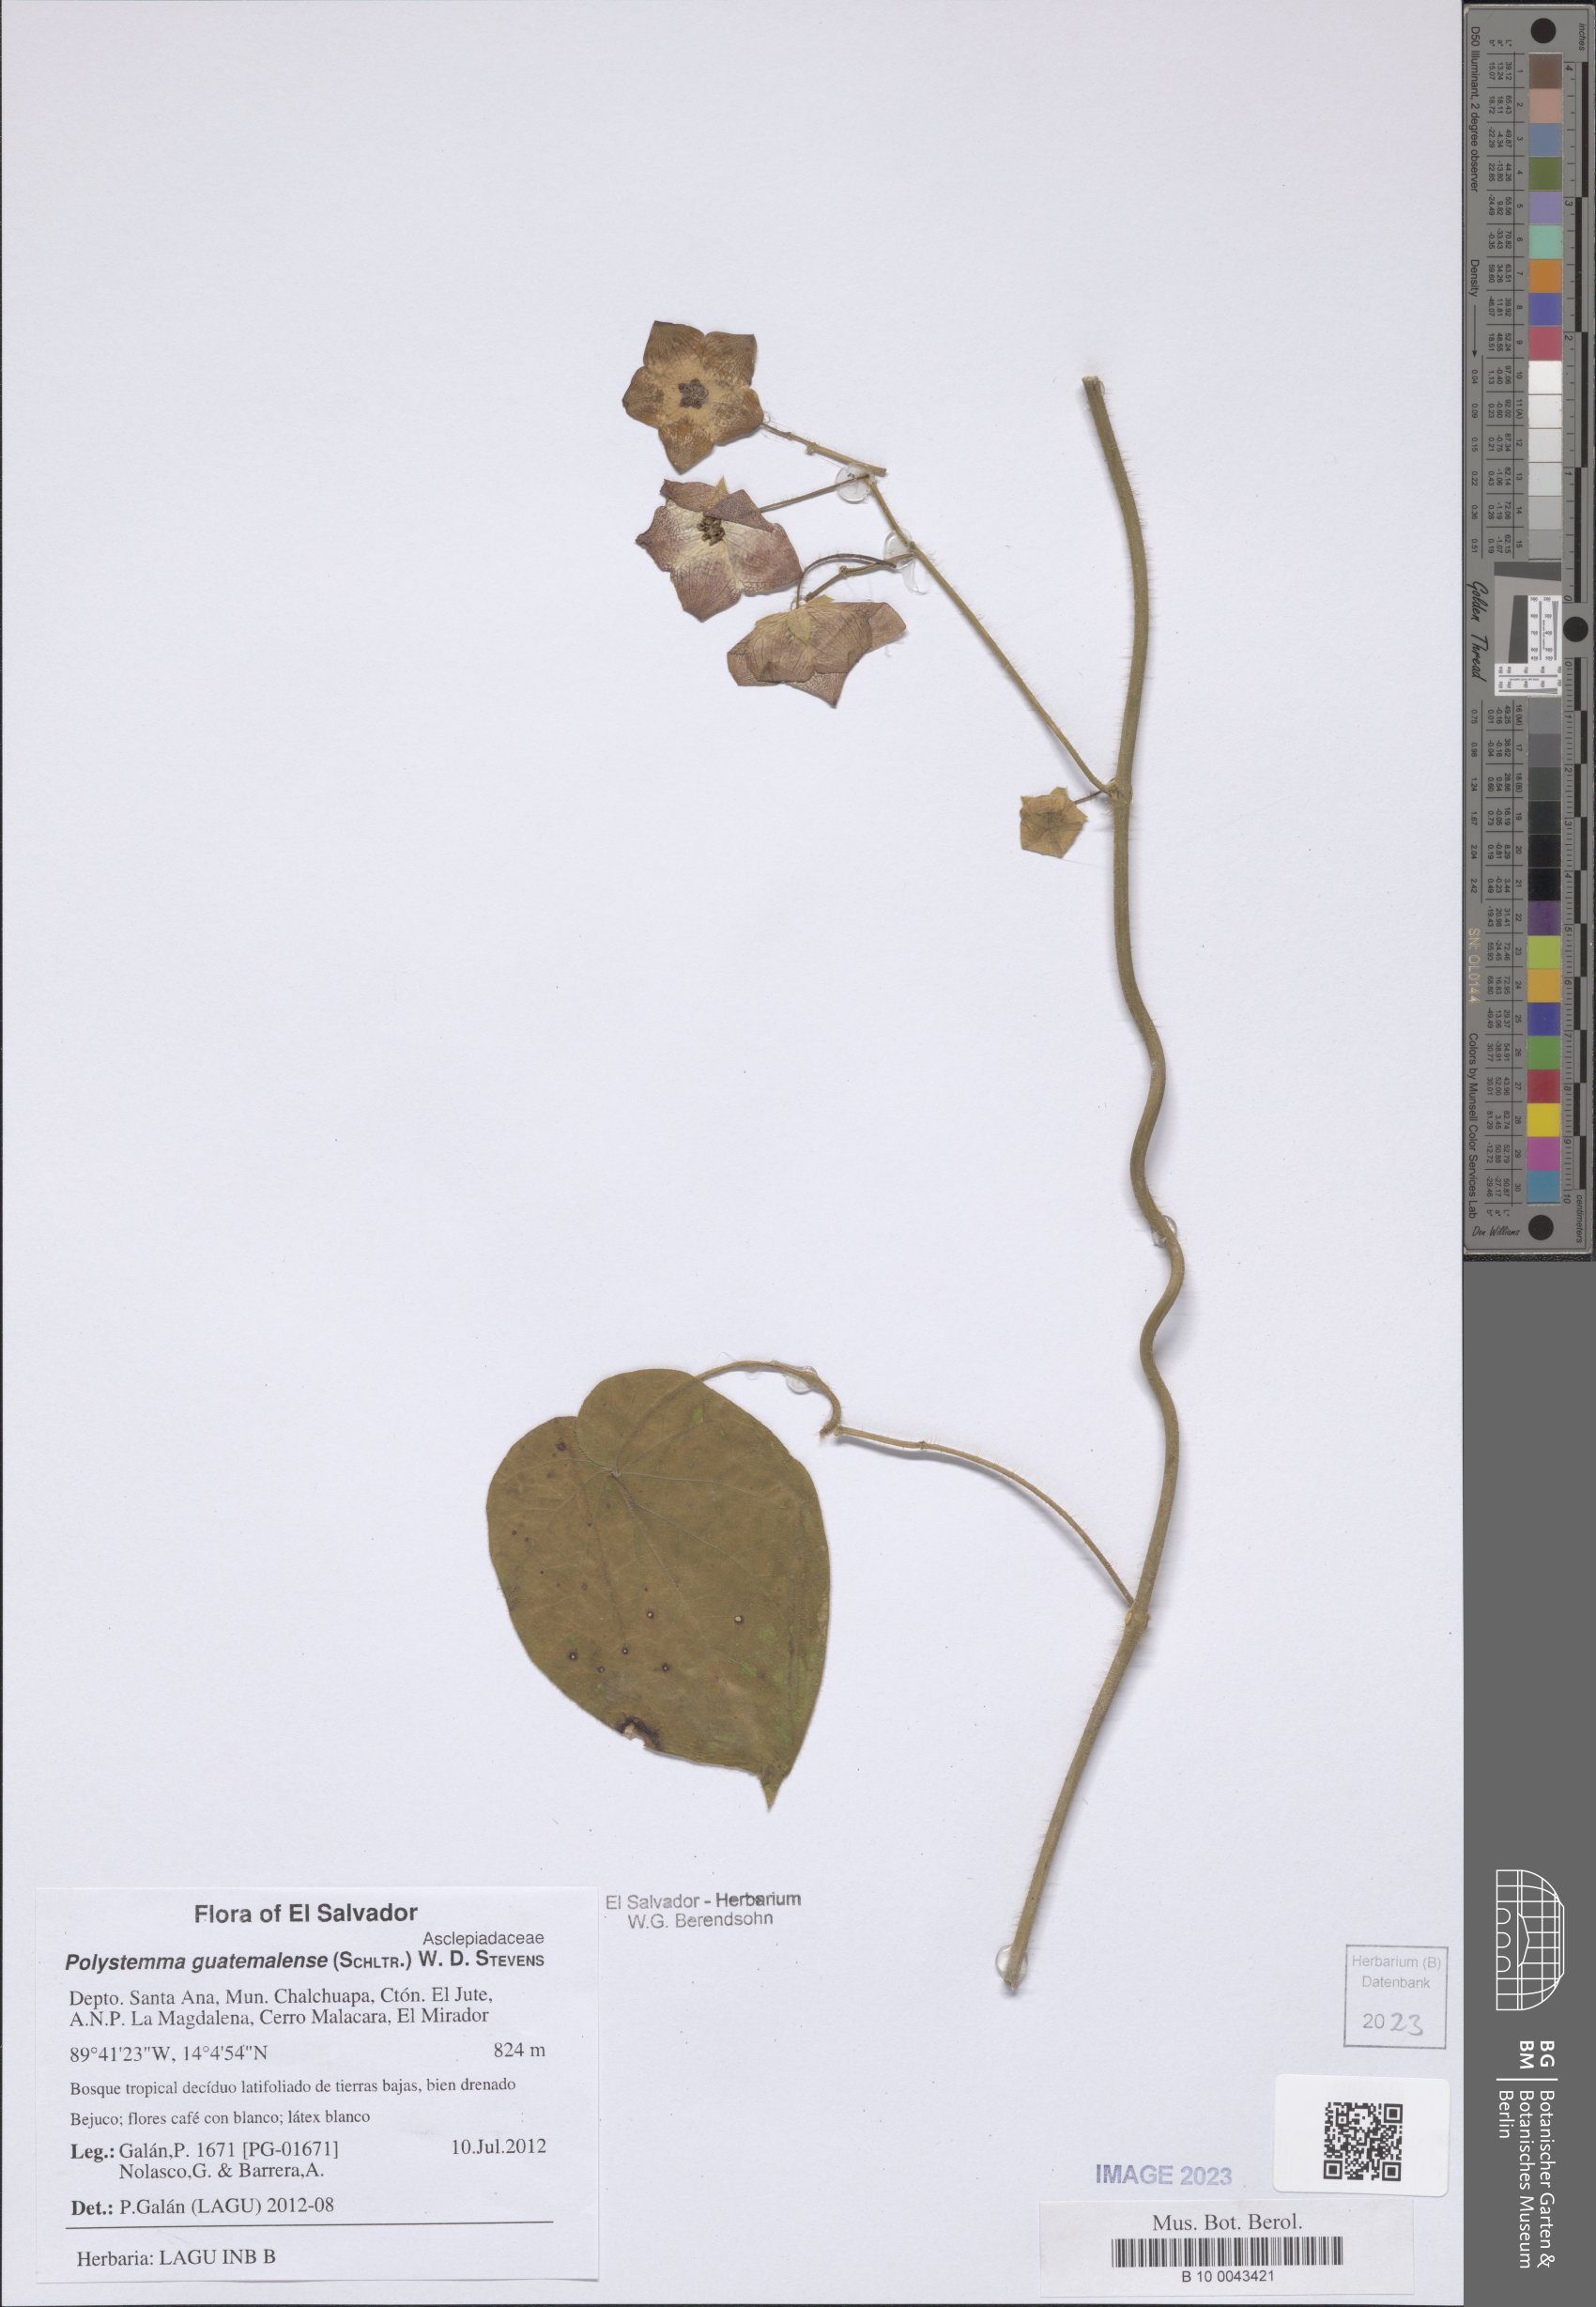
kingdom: Plantae
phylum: Tracheophyta
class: Magnoliopsida
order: Gentianales
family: Apocynaceae
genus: Polystemma
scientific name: Polystemma guatemalense
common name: Arborescente rattan
